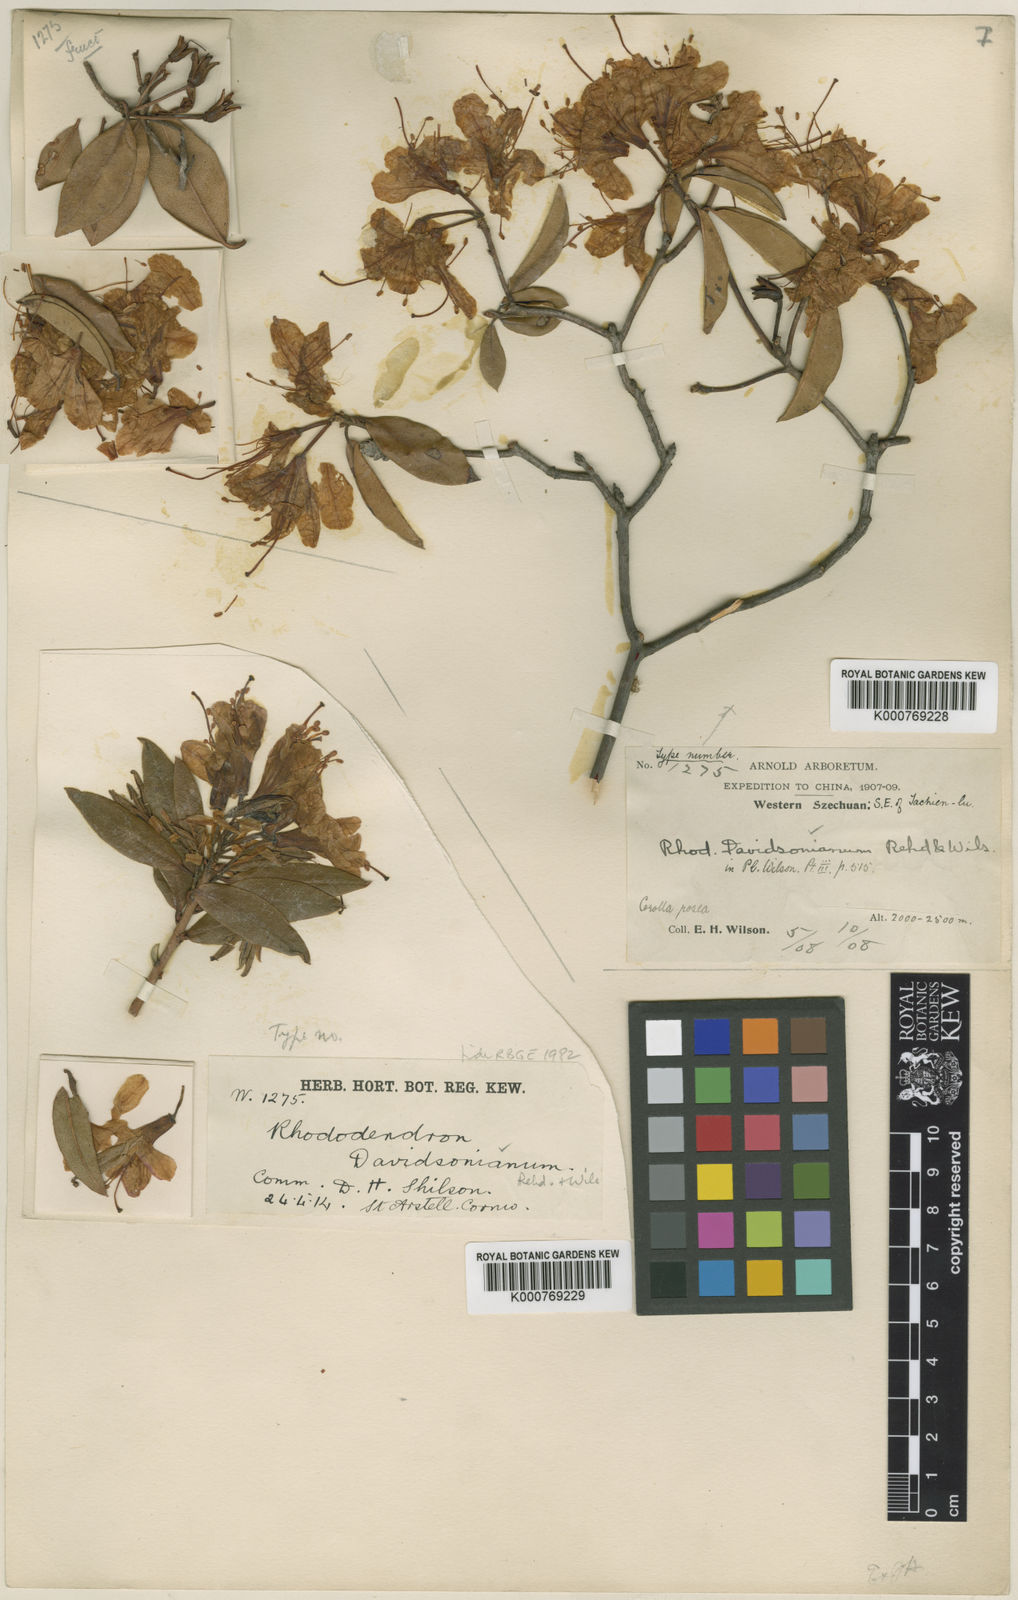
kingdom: Plantae
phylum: Tracheophyta
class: Magnoliopsida
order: Ericales
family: Ericaceae
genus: Rhododendron
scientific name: Rhododendron davidsonianum
